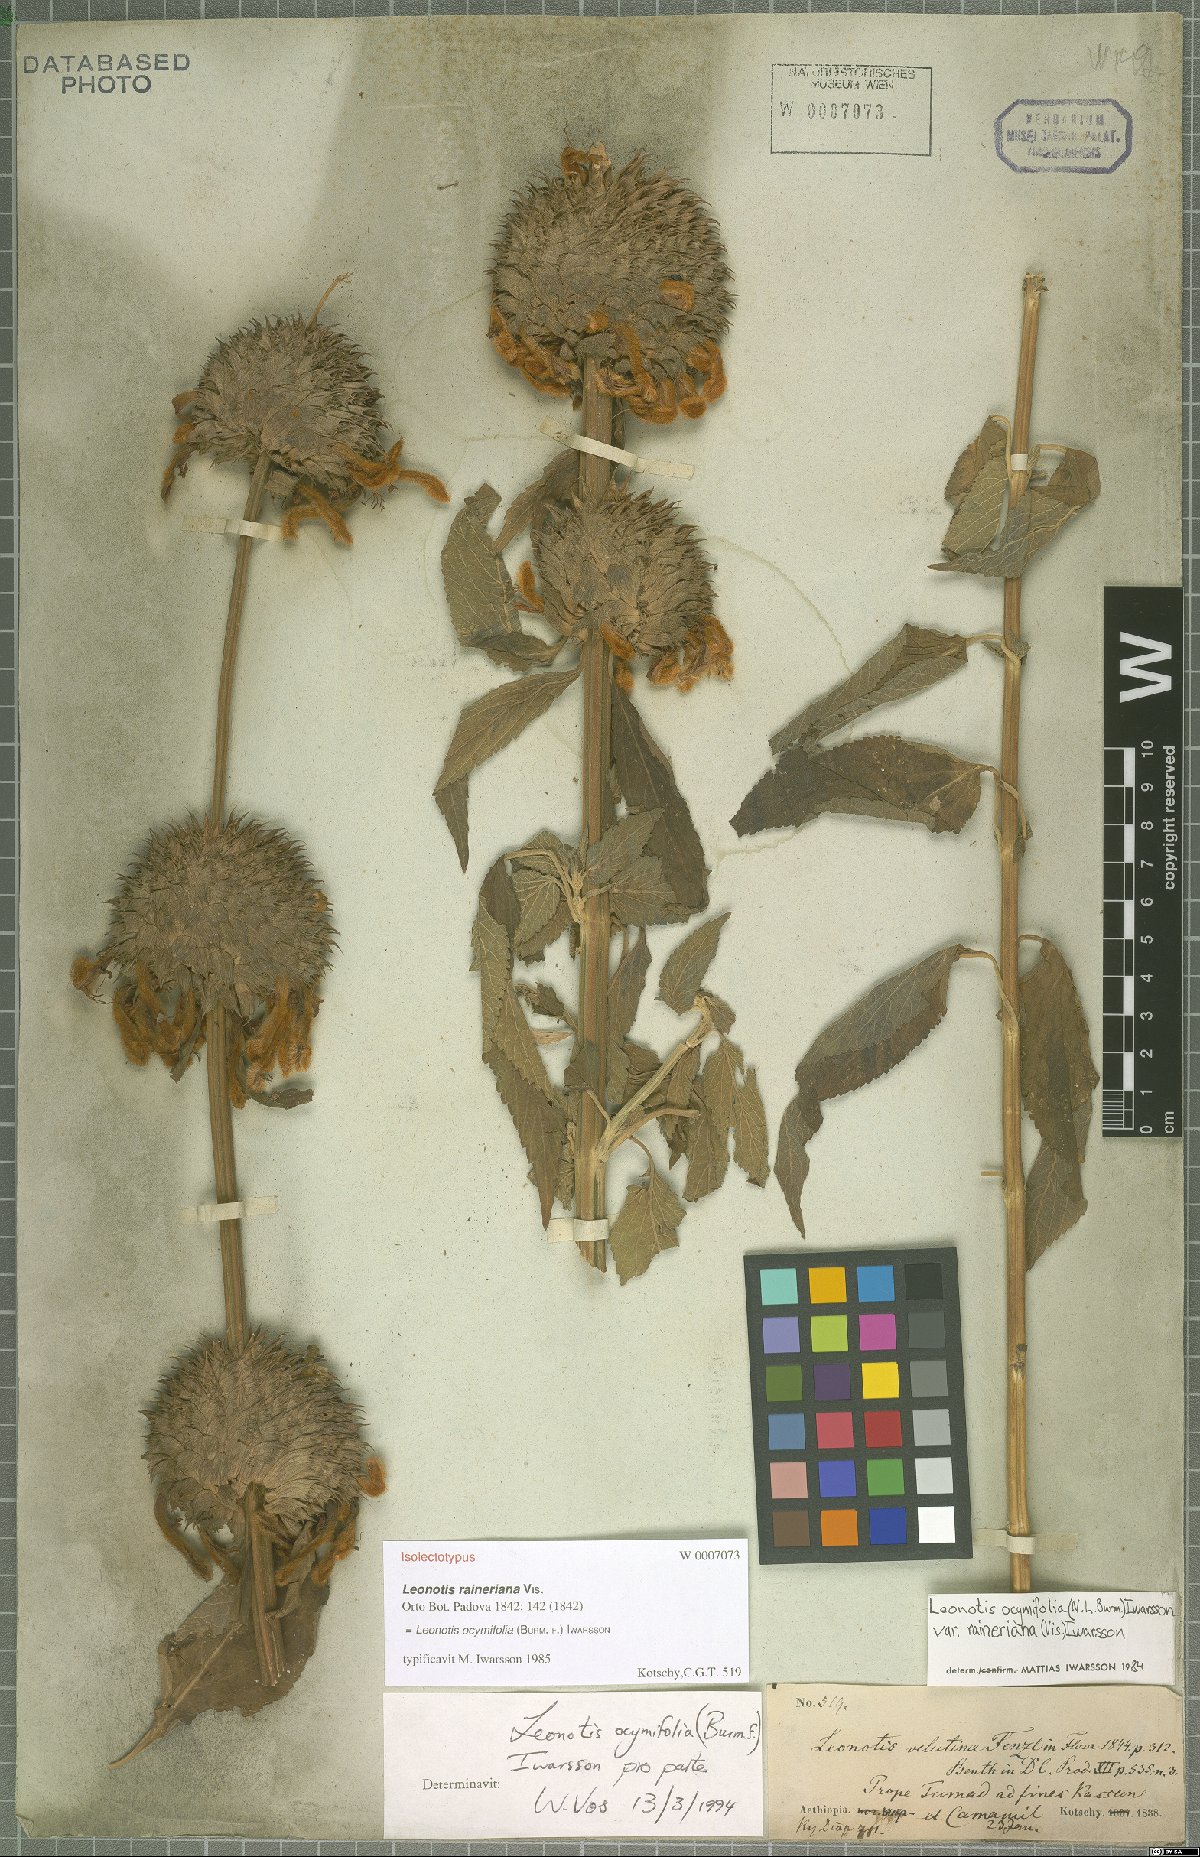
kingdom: Plantae
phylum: Tracheophyta
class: Magnoliopsida
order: Lamiales
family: Lamiaceae
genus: Leonotis
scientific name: Leonotis ocymifolia
